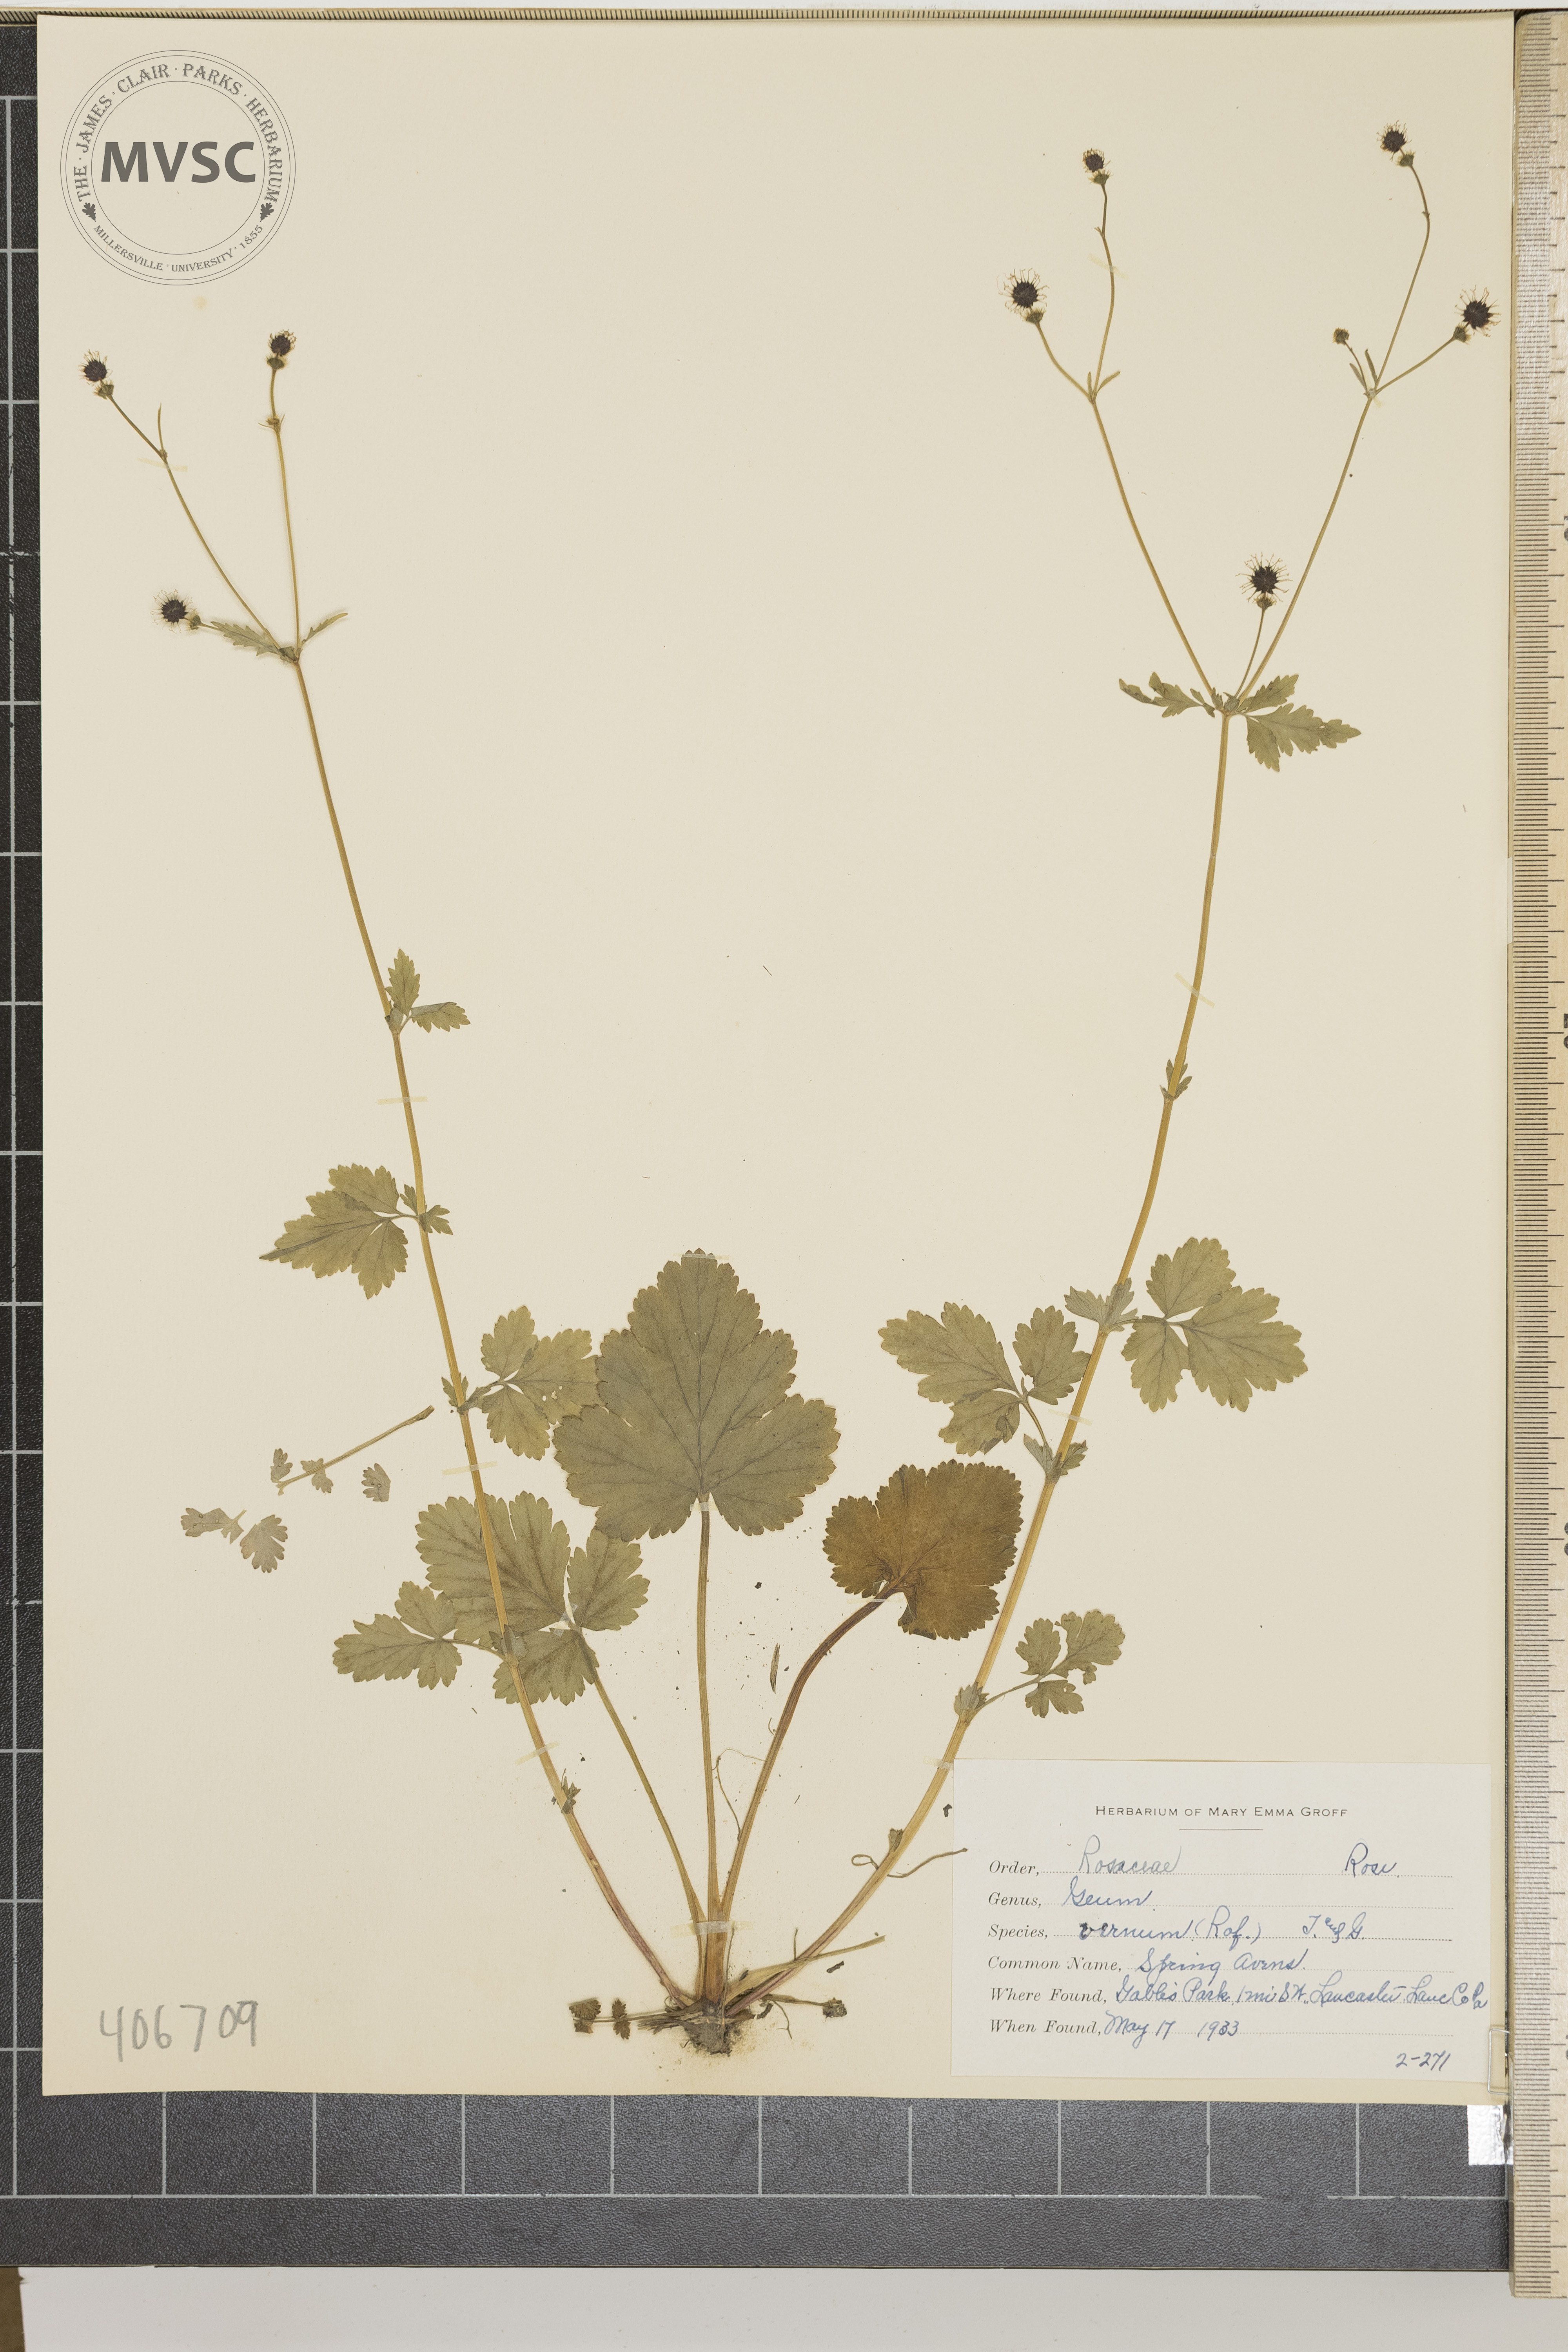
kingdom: Plantae
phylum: Tracheophyta
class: Magnoliopsida
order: Rosales
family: Rosaceae
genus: Geum
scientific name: Geum vernum
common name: Spring Avens
